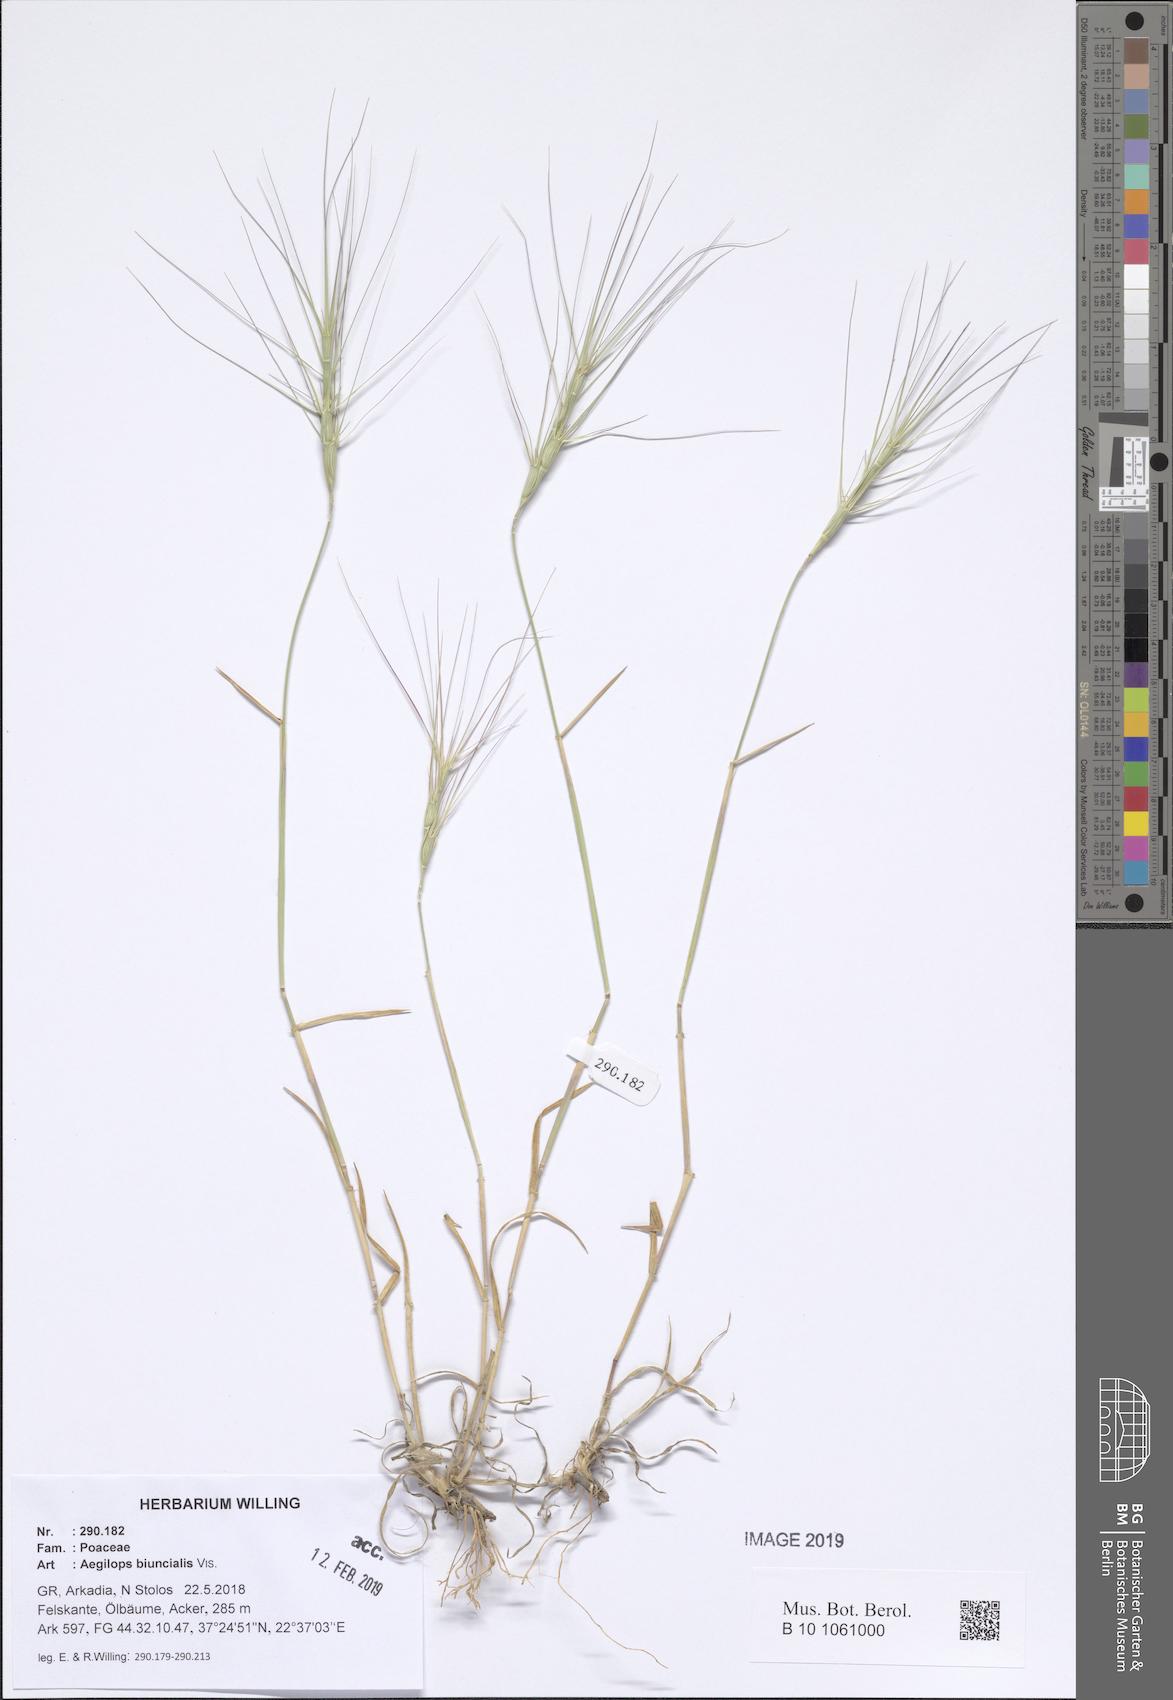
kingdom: Plantae
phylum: Tracheophyta
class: Liliopsida
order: Poales
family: Poaceae
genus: Aegilops
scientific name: Aegilops biuncialis
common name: Mediterranean aegilops
